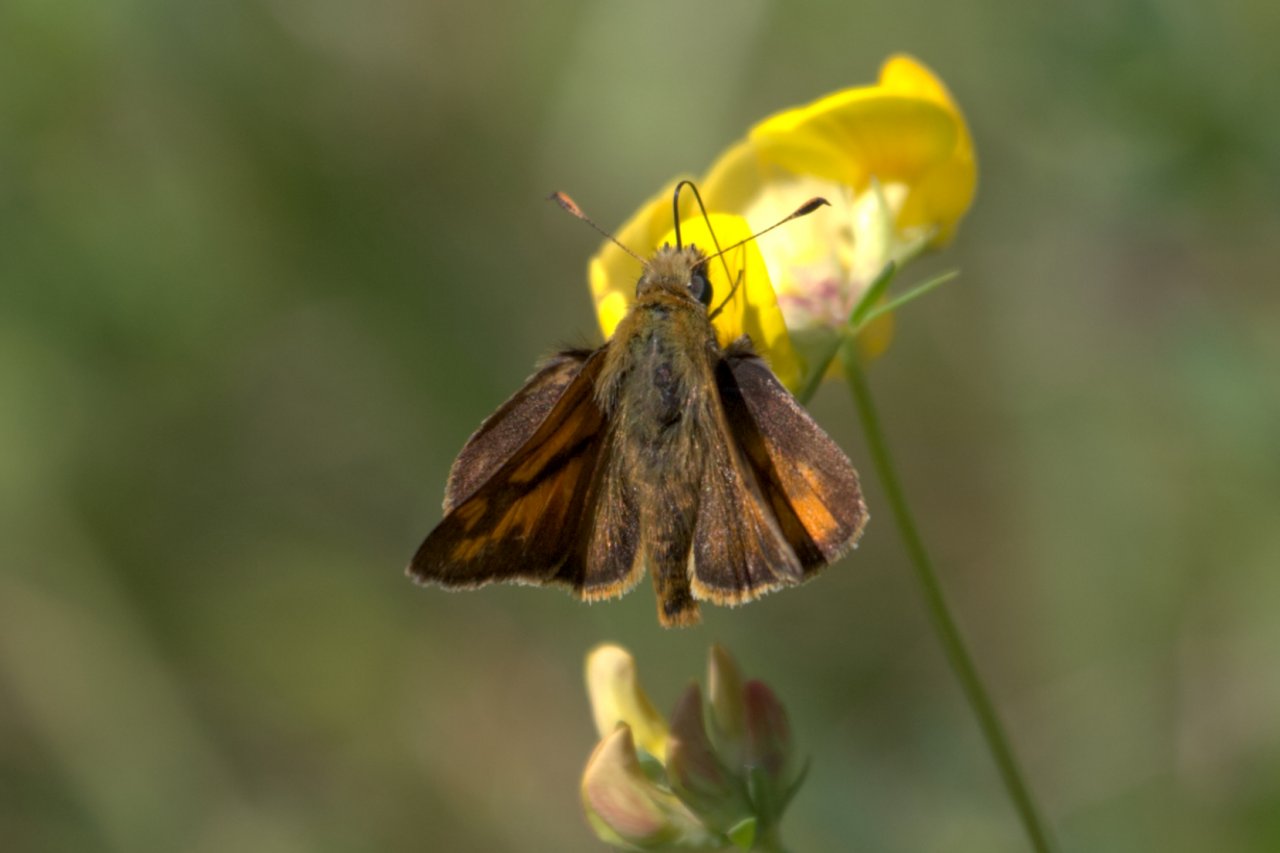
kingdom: Animalia
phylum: Arthropoda
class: Insecta
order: Lepidoptera
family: Hesperiidae
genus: Ochlodes
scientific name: Ochlodes sylvanoides
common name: Woodland Skipper
